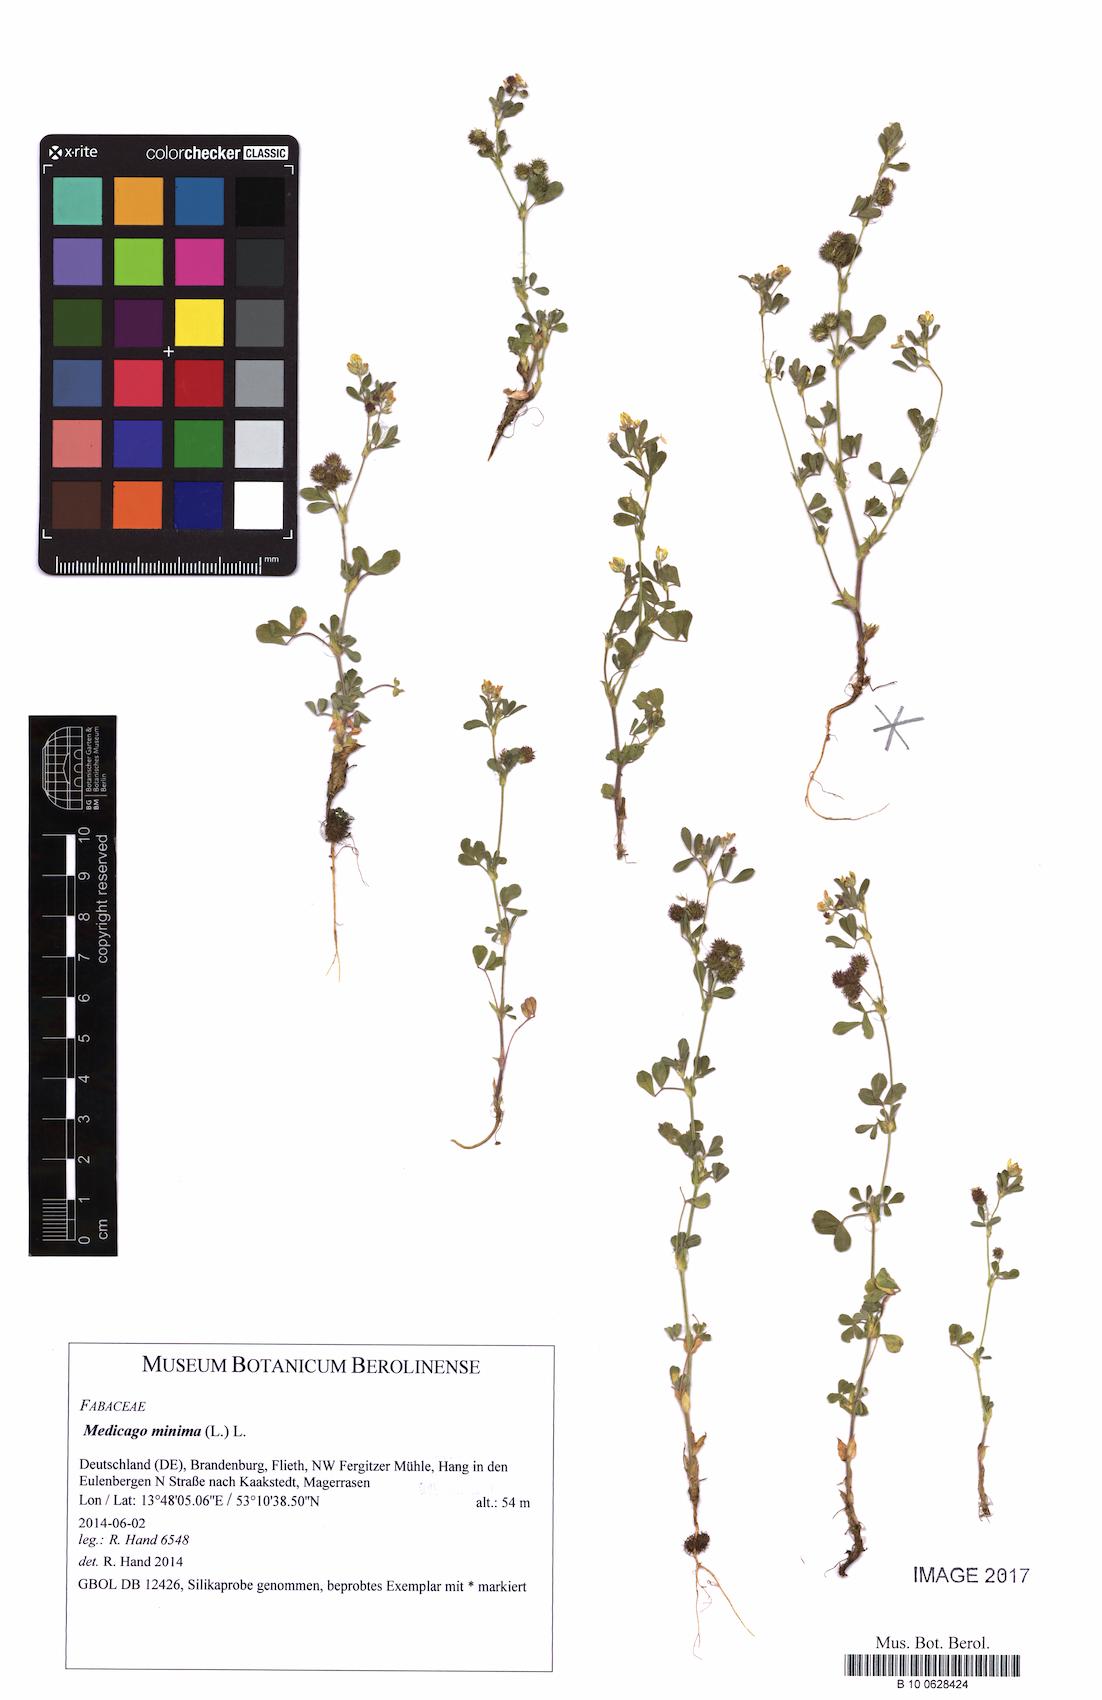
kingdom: Plantae
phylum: Tracheophyta
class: Magnoliopsida
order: Fabales
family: Fabaceae
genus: Medicago
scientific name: Medicago minima
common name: Little bur-clover
